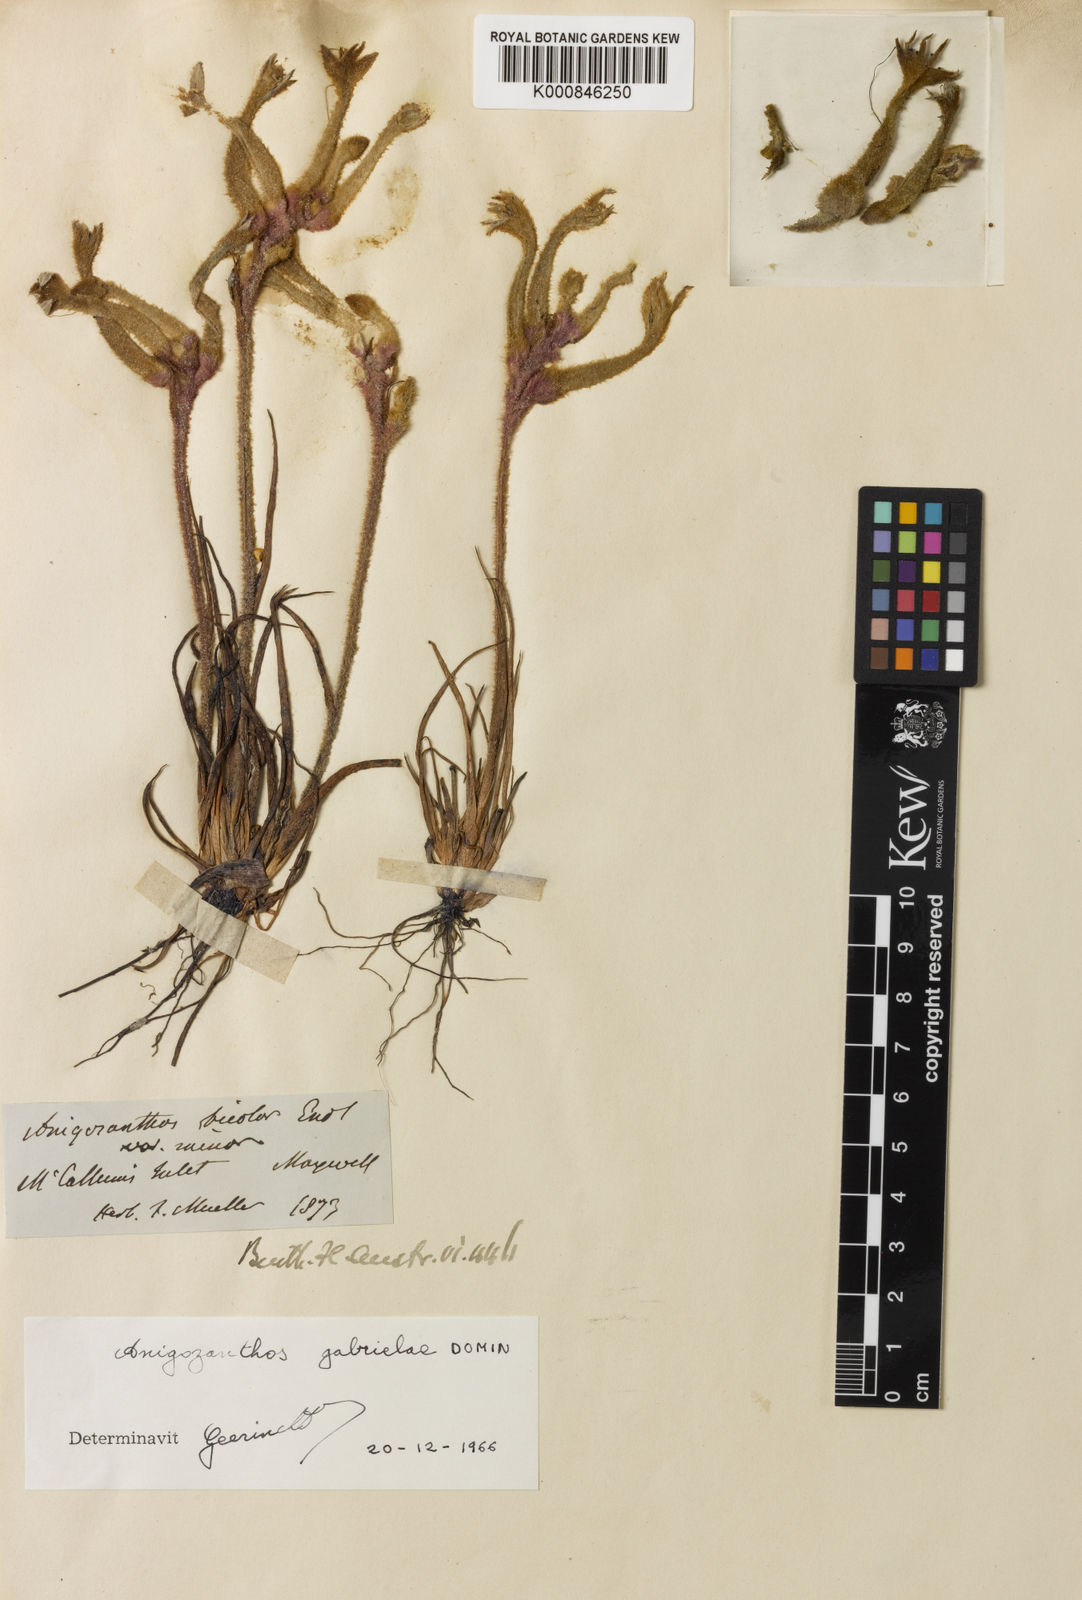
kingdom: Plantae
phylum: Tracheophyta
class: Liliopsida
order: Commelinales
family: Haemodoraceae
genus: Anigozanthos
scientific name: Anigozanthos bicolor
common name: Little kangaroo-paw
